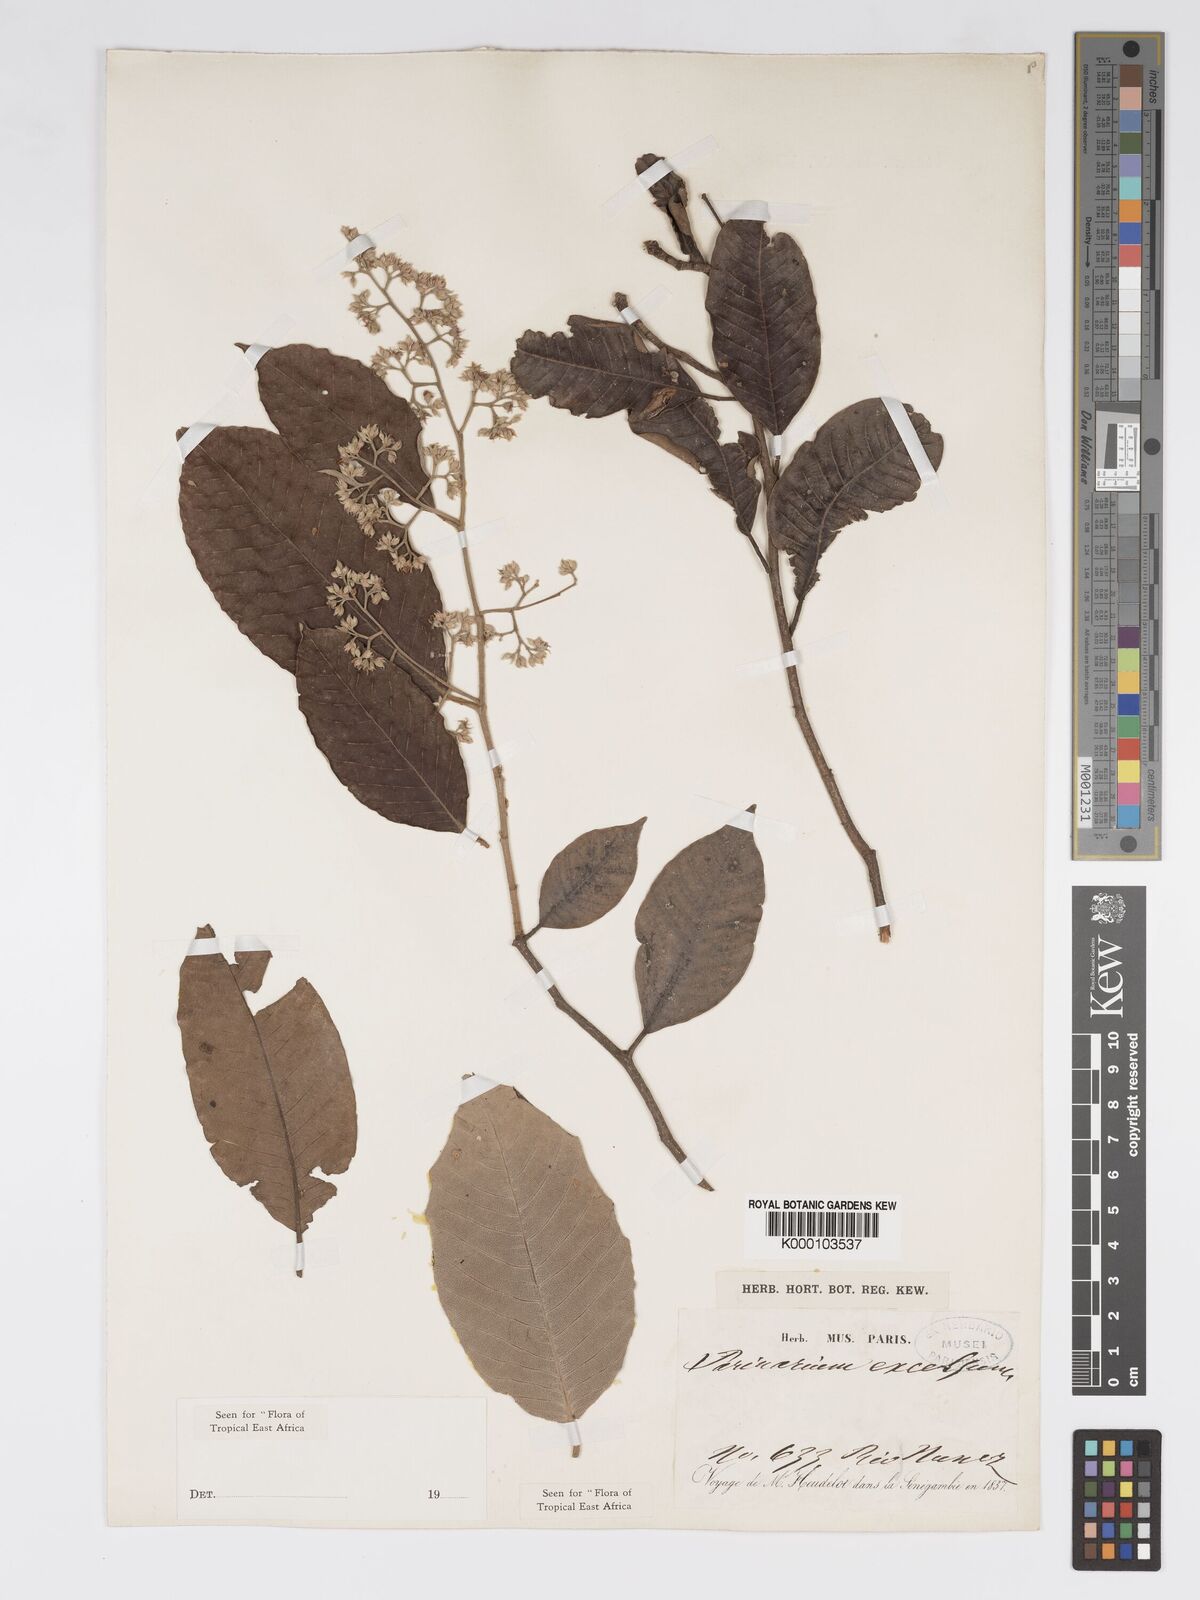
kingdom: Plantae
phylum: Tracheophyta
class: Magnoliopsida
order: Malpighiales
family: Chrysobalanaceae
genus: Parinari
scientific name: Parinari excelsa
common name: Guinea-plum
